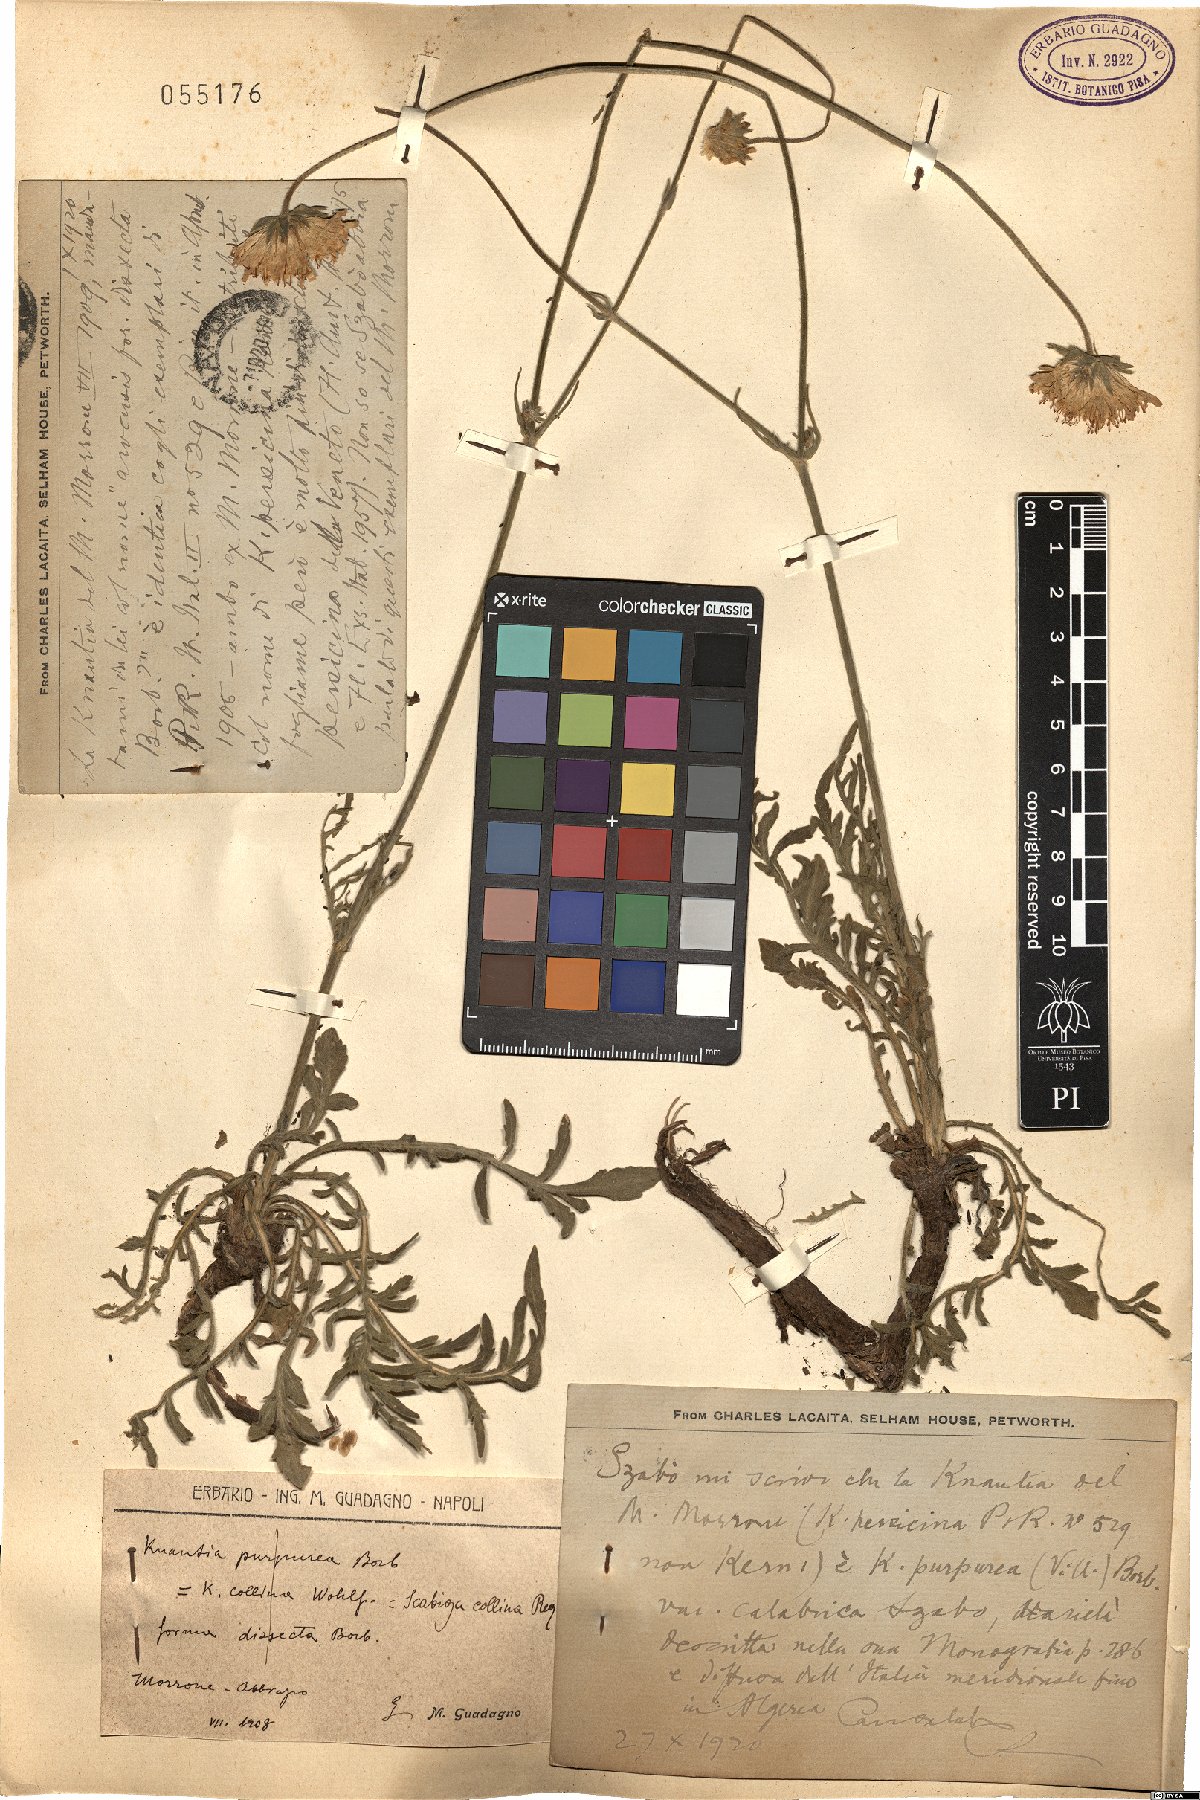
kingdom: Plantae
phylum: Tracheophyta
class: Magnoliopsida
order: Dipsacales
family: Caprifoliaceae
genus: Knautia
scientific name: Knautia collina
